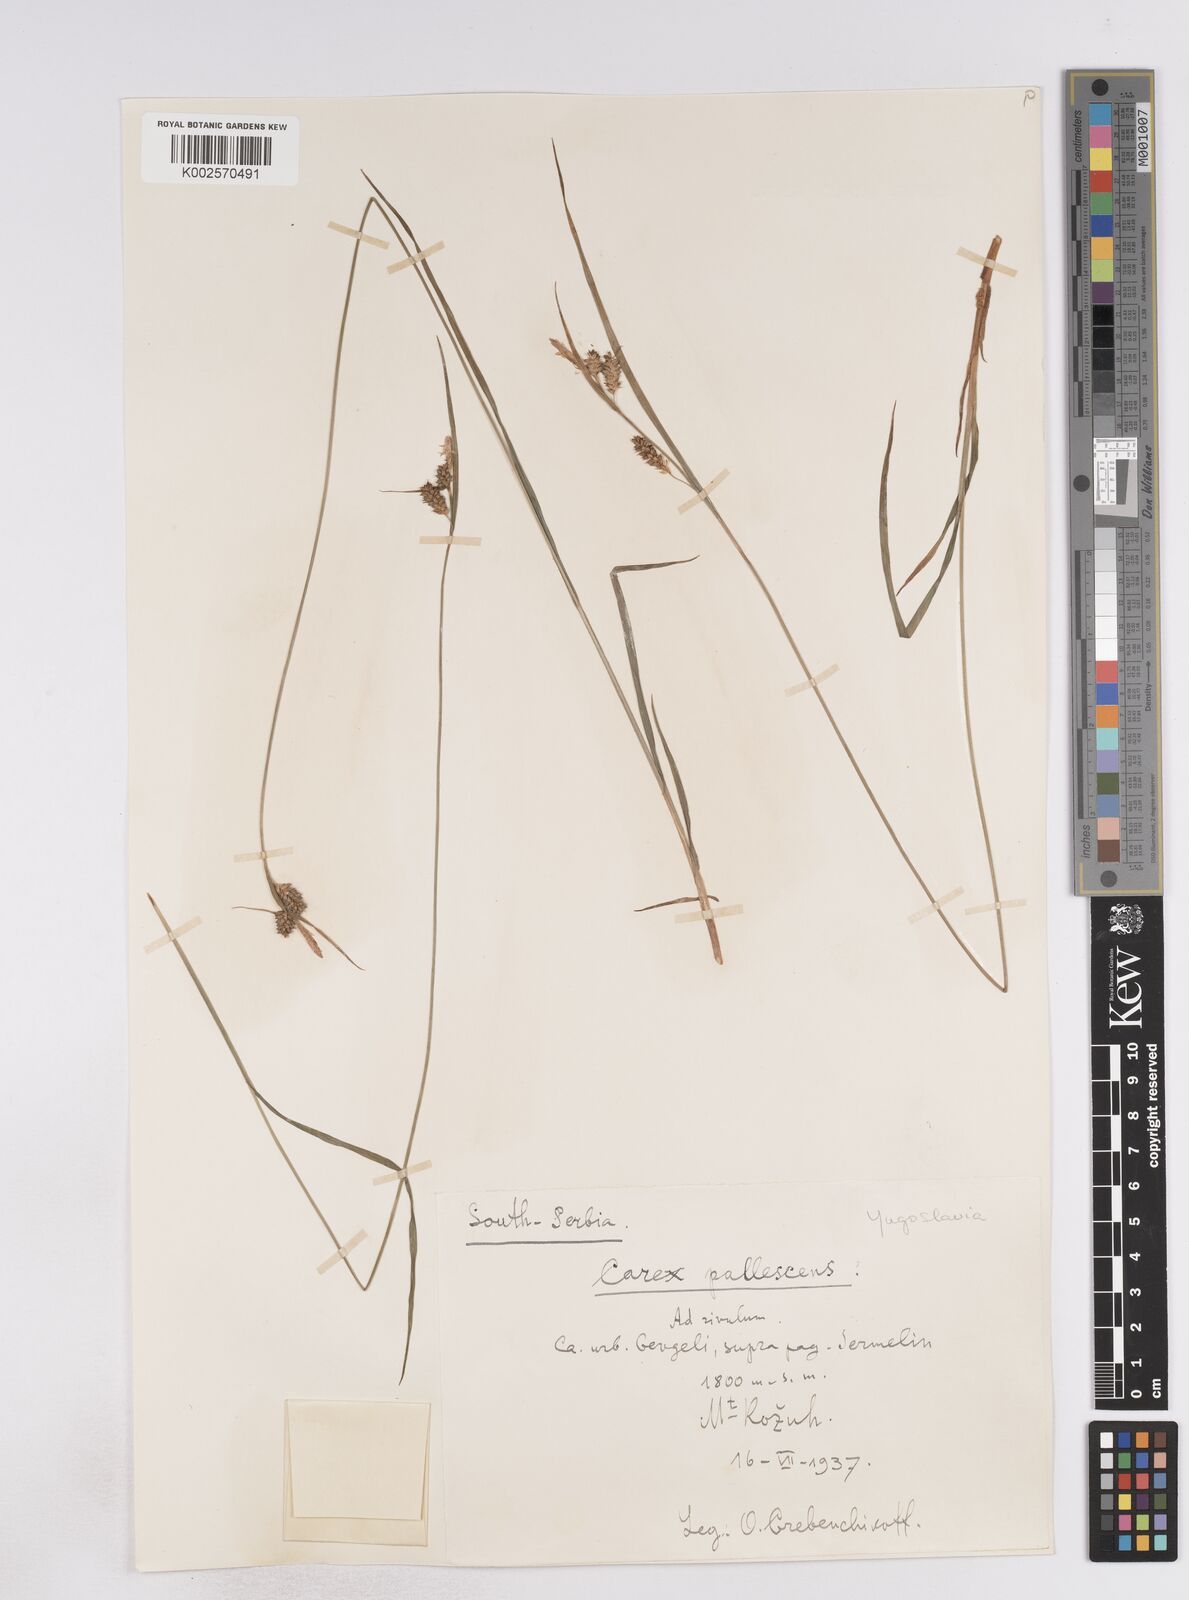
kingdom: Plantae
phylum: Tracheophyta
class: Liliopsida
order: Poales
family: Cyperaceae
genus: Carex
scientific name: Carex pallescens
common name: Pale sedge
